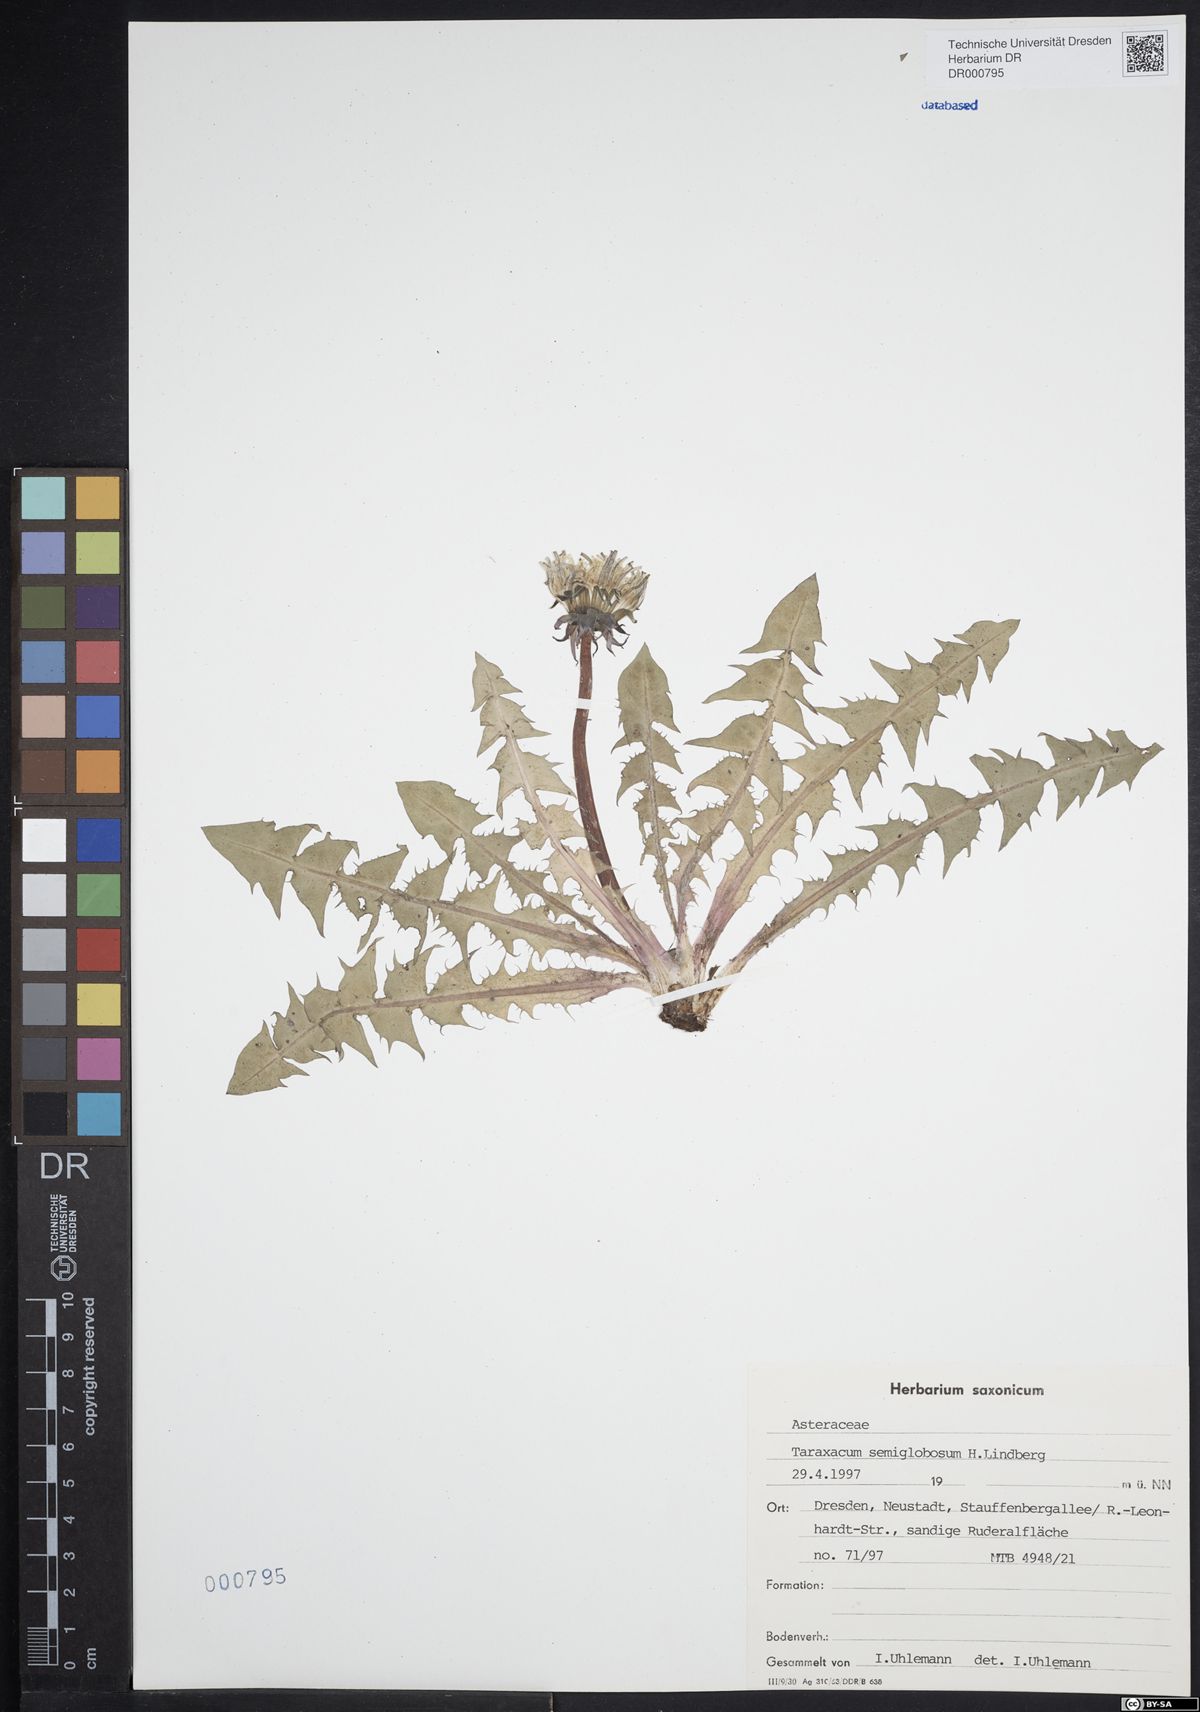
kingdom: Plantae
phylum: Tracheophyta
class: Magnoliopsida
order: Asterales
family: Asteraceae
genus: Taraxacum
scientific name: Taraxacum semiglobosum
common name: Hairy-ribbed dandelion
